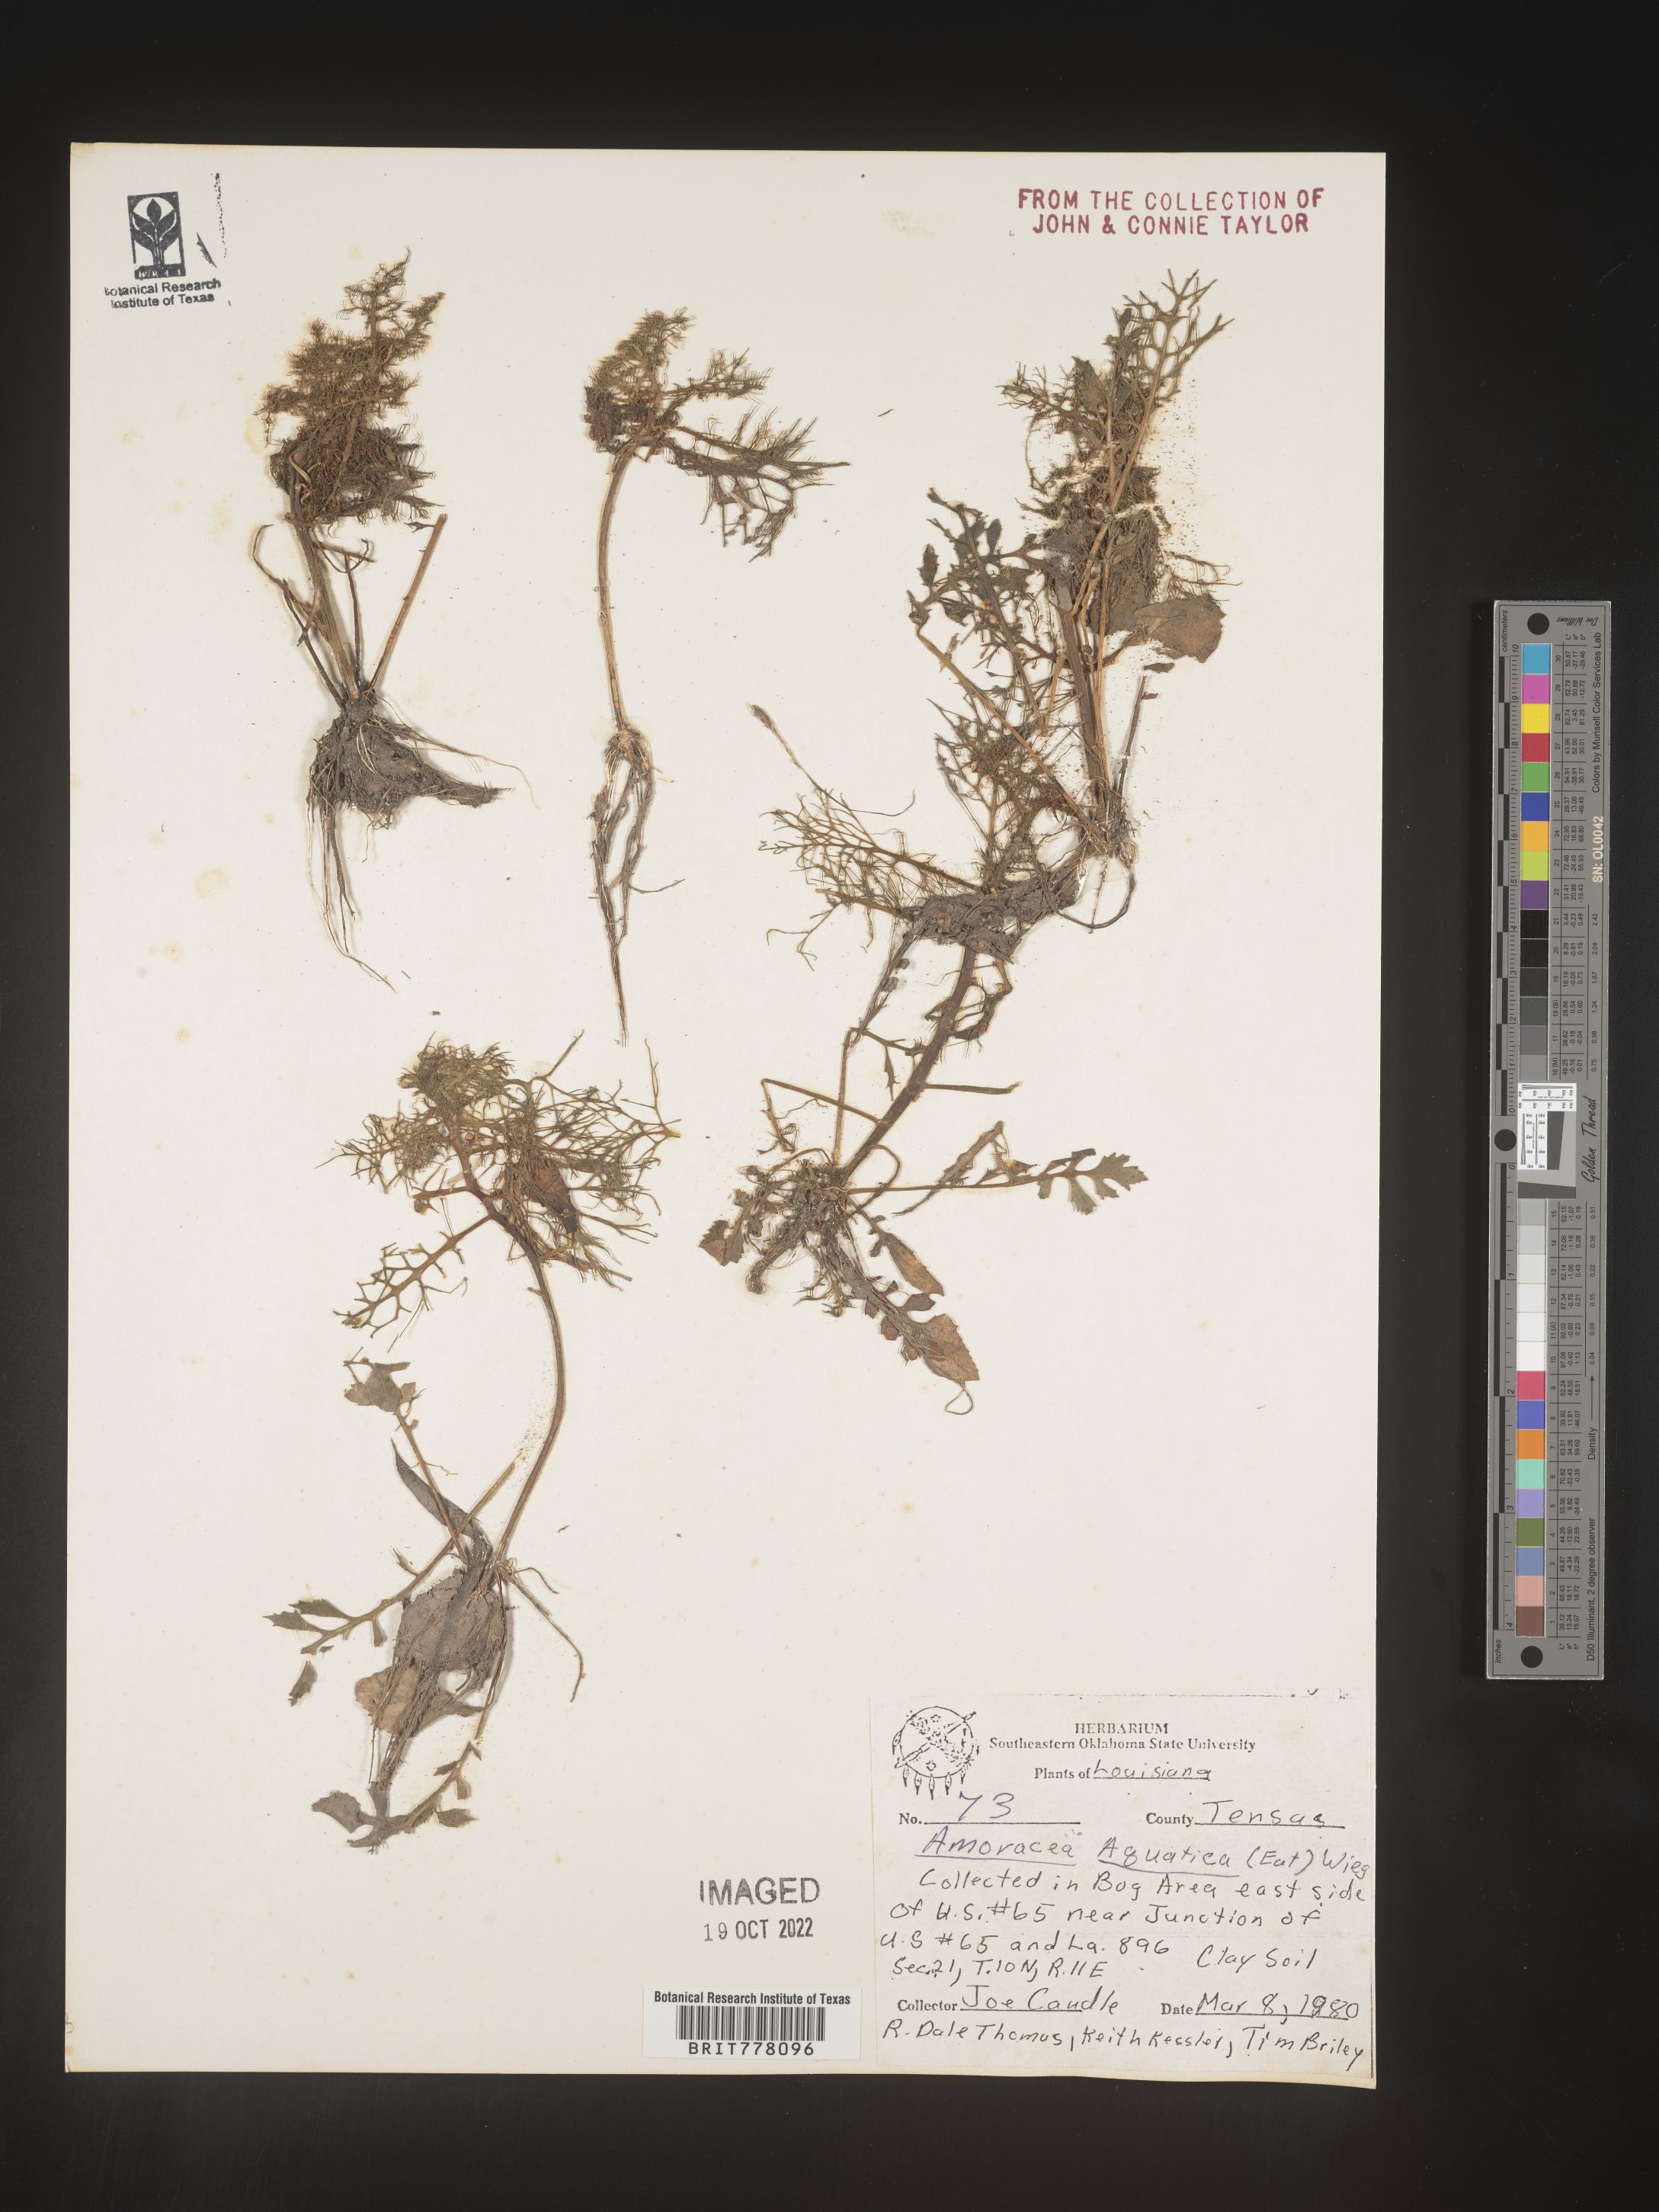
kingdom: Plantae
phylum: Tracheophyta
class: Magnoliopsida
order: Brassicales
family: Brassicaceae
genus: Rorippa
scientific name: Rorippa
